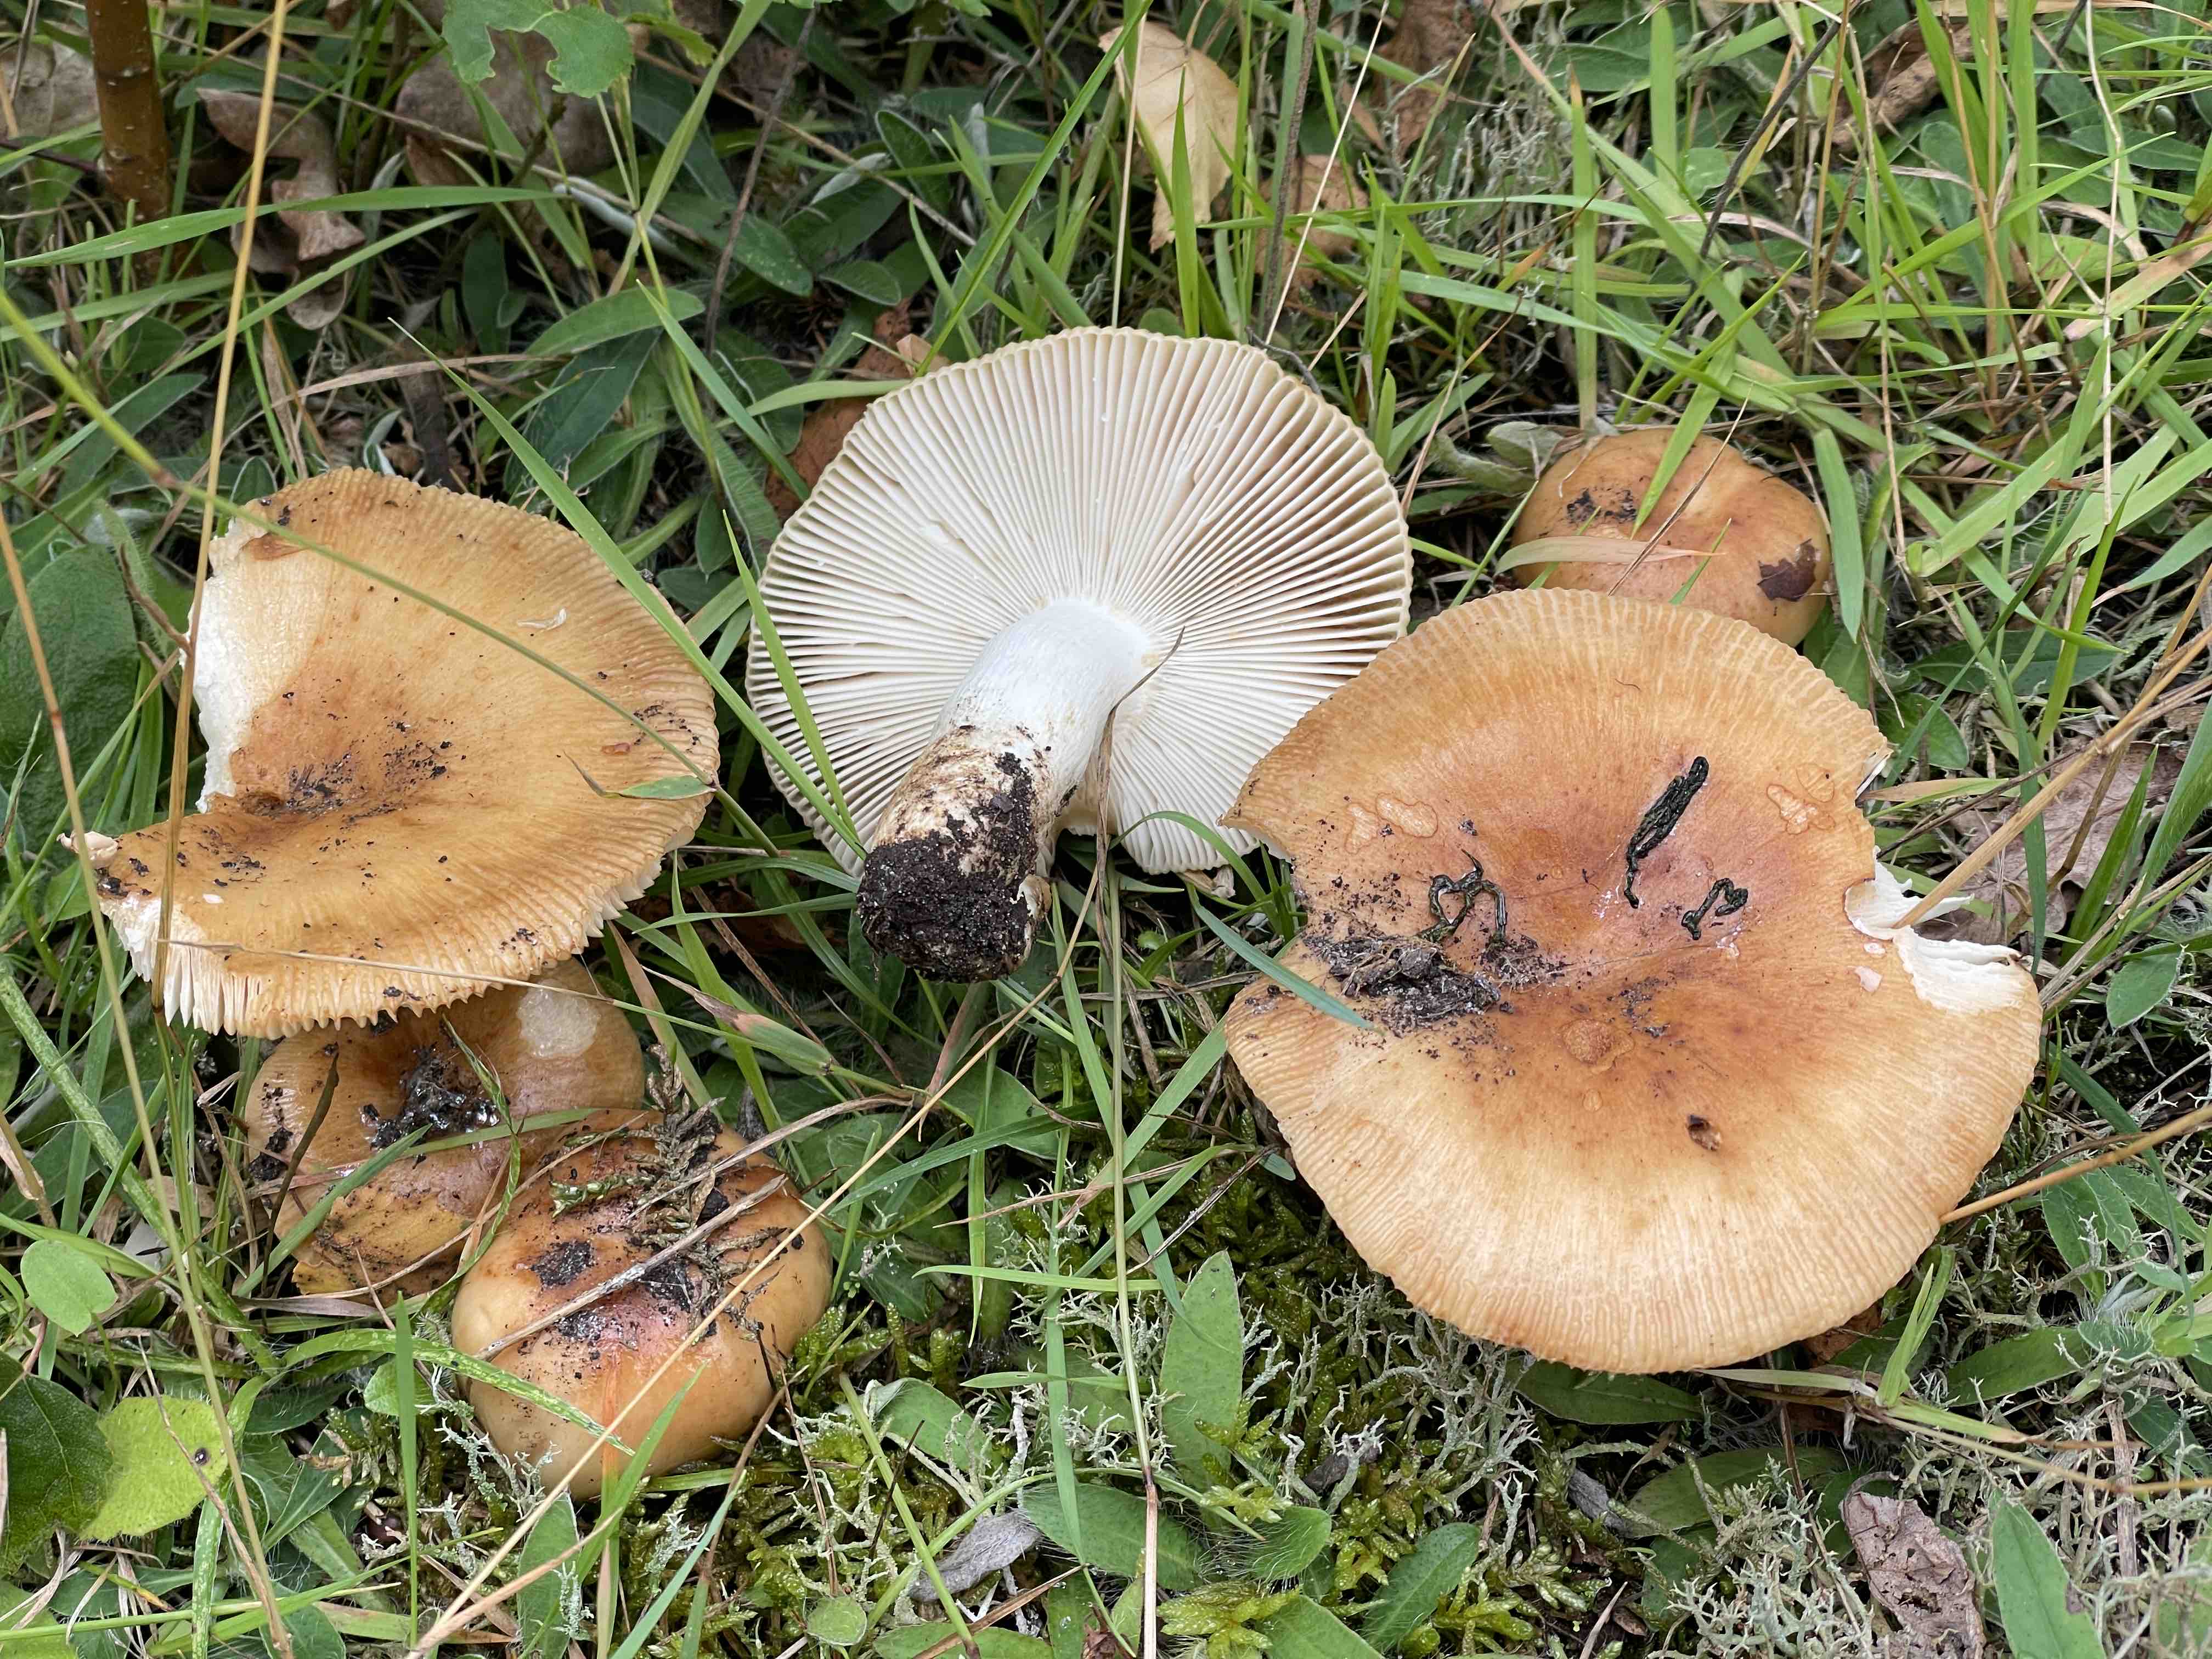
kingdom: Fungi
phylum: Basidiomycota
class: Agaricomycetes
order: Russulales
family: Russulaceae
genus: Russula
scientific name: Russula grata
